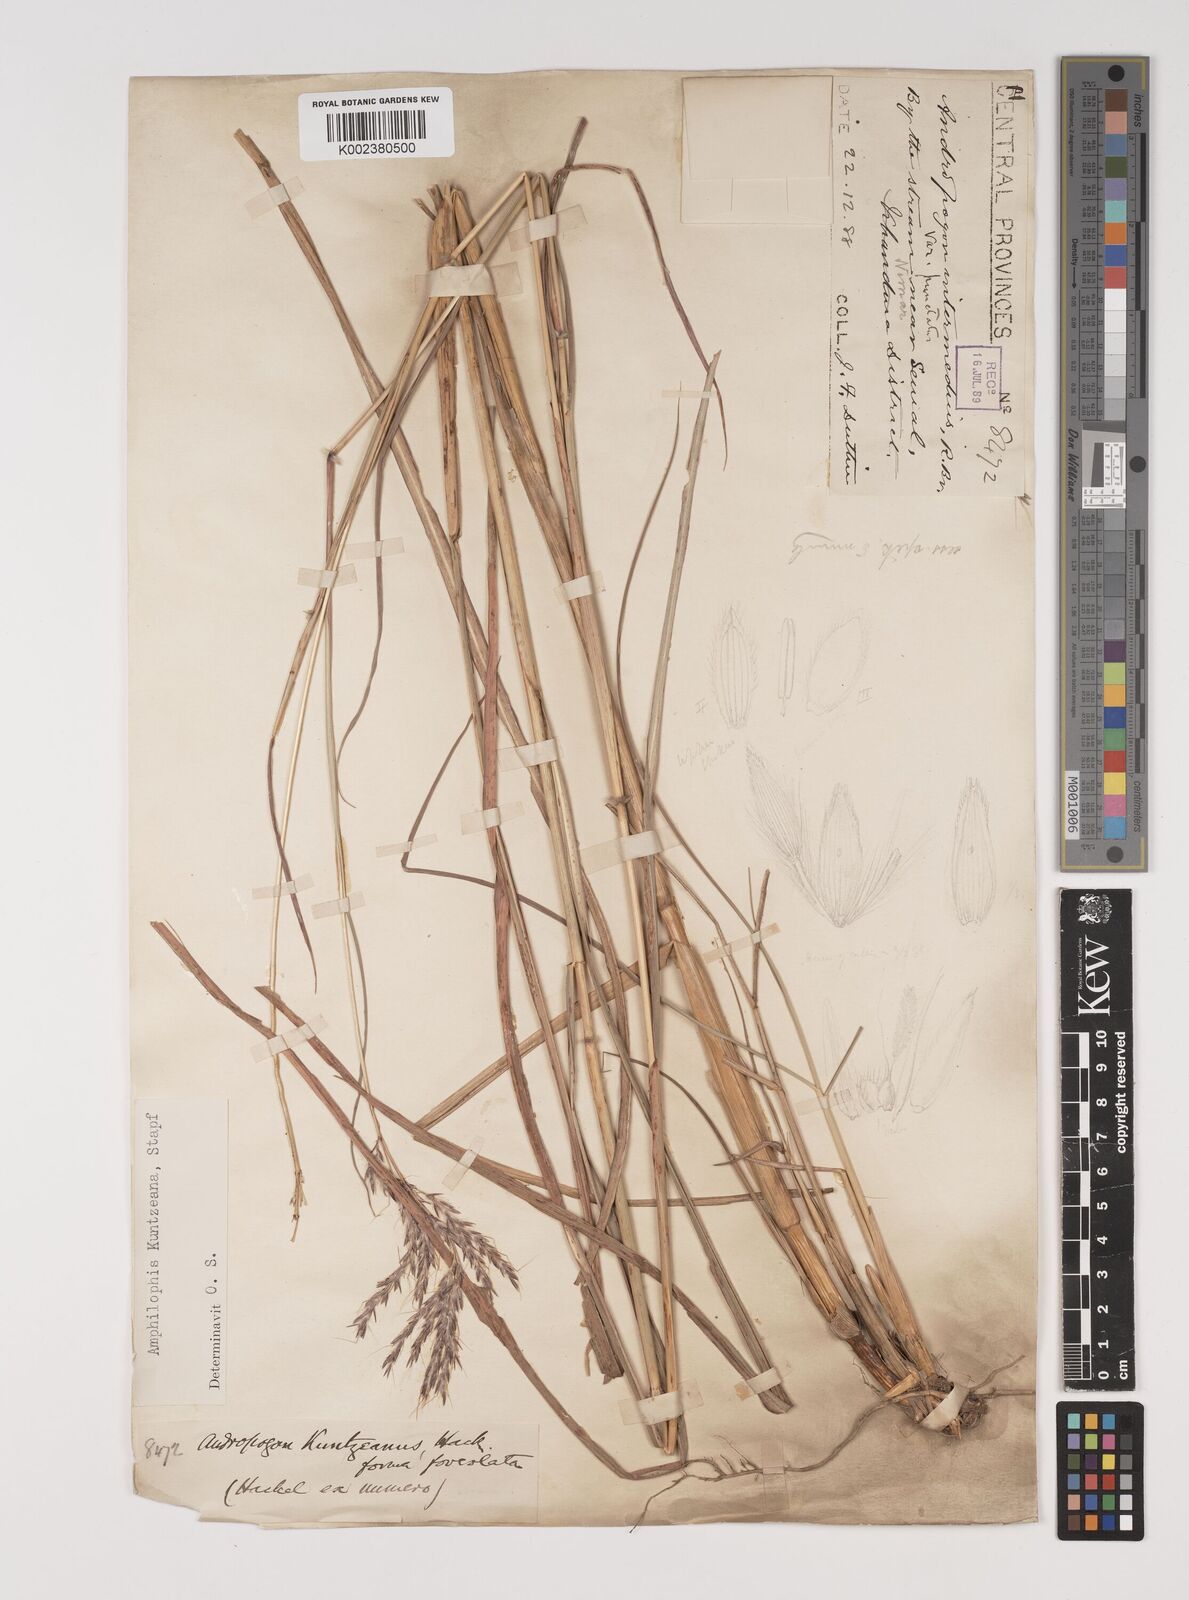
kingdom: Plantae
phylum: Tracheophyta
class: Liliopsida
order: Poales
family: Poaceae
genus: Bothriochloa
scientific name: Bothriochloa kuntzeana
